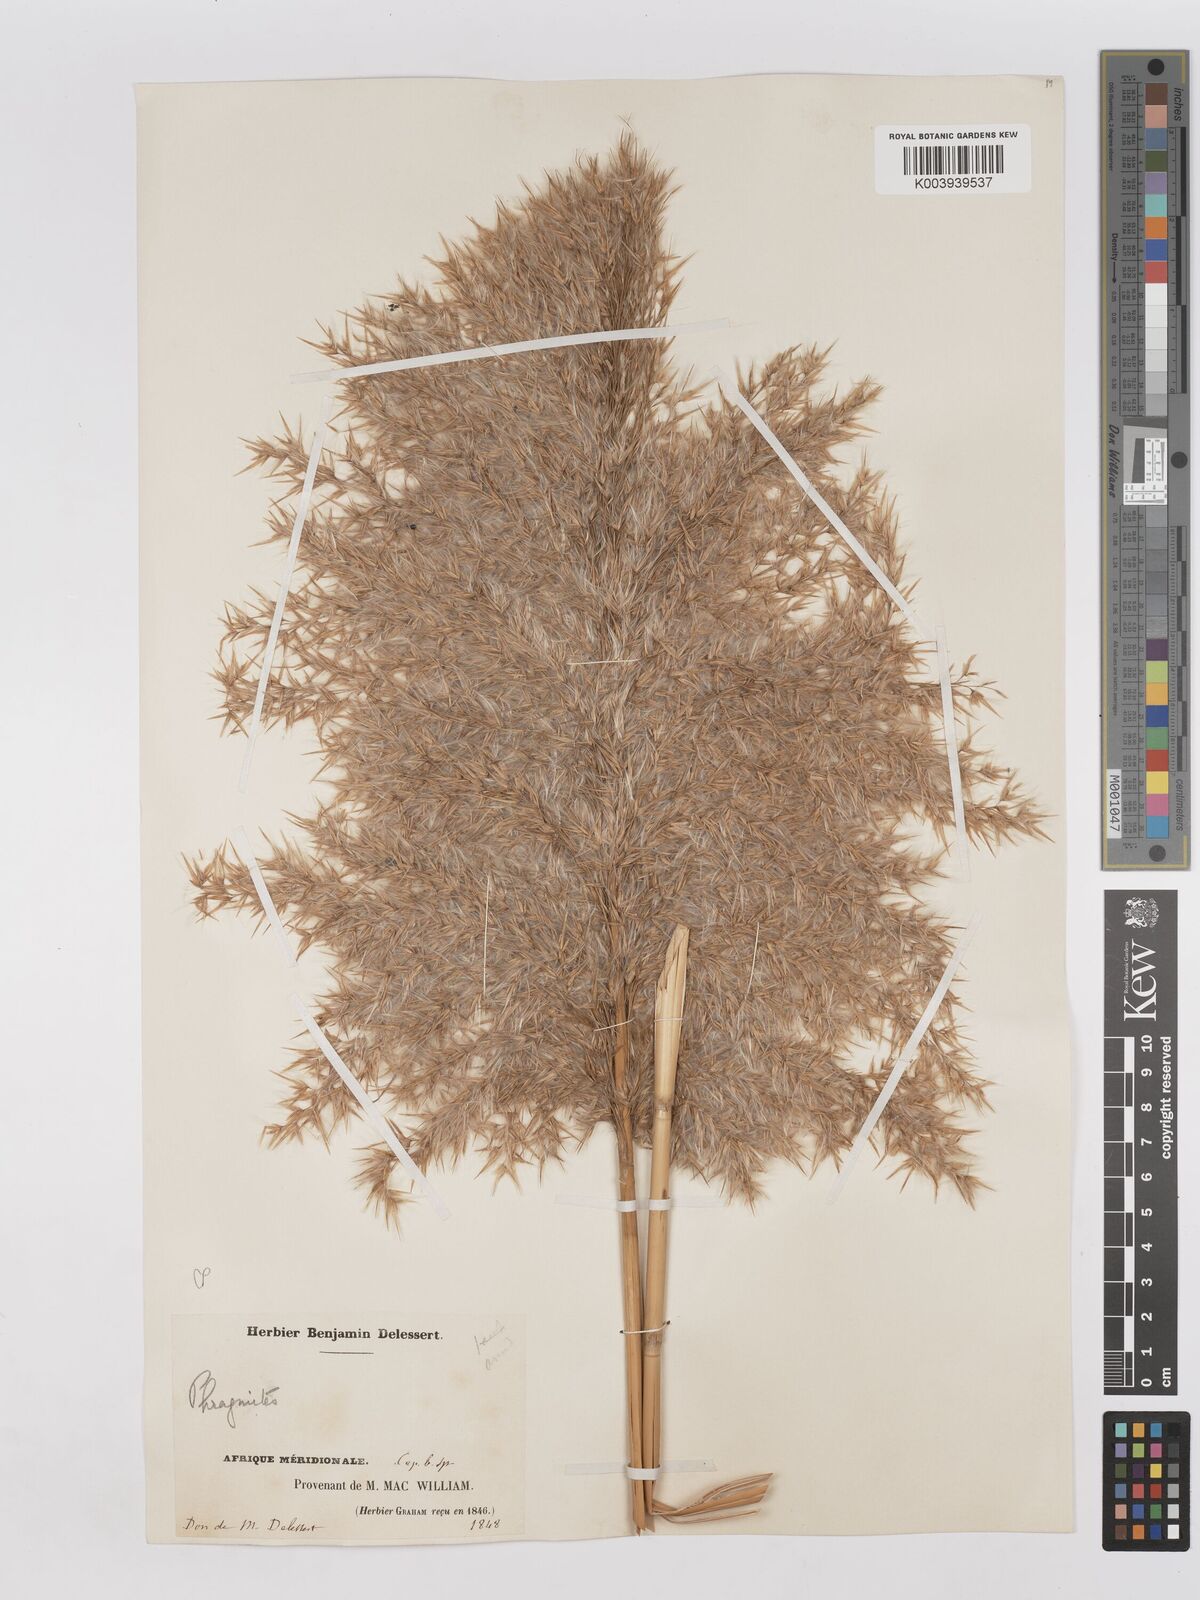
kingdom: Plantae
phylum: Tracheophyta
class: Liliopsida
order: Poales
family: Poaceae
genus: Phragmites
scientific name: Phragmites australis
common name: Common reed
